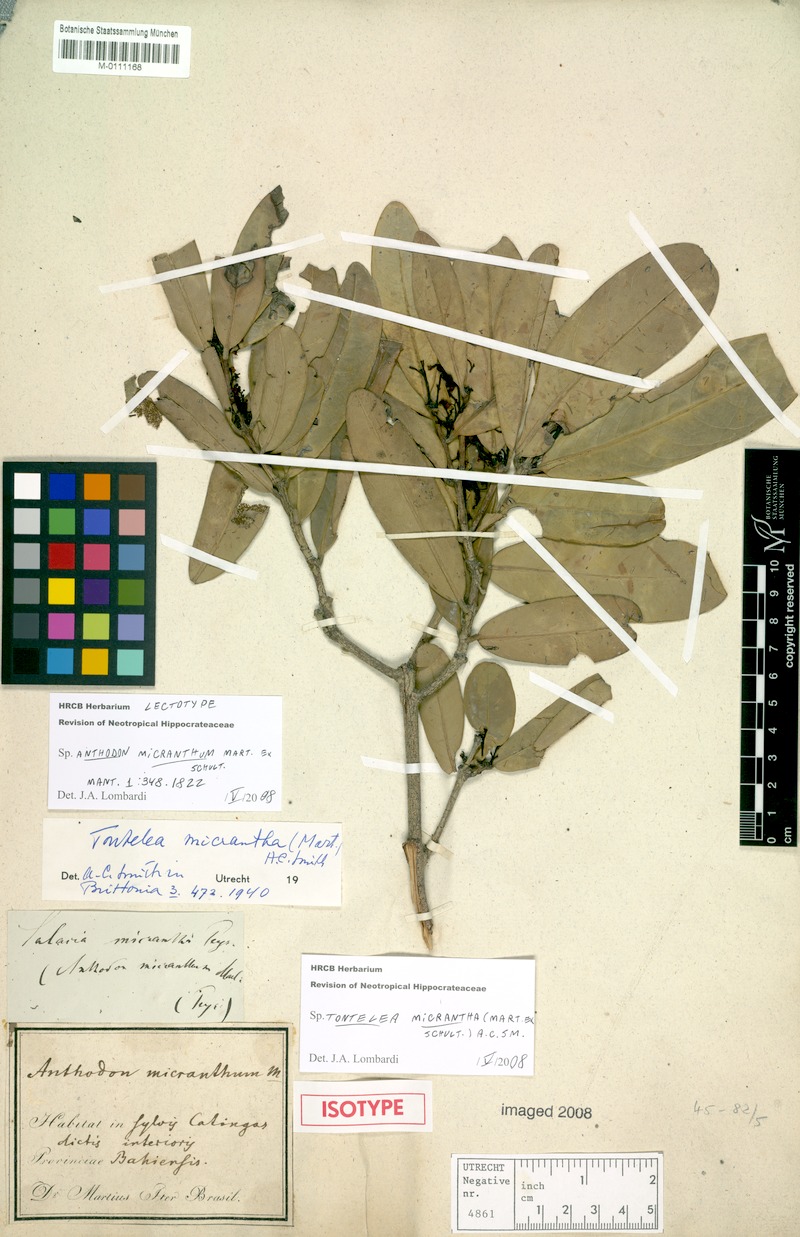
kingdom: Plantae
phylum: Tracheophyta
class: Magnoliopsida
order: Celastrales
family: Celastraceae
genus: Tontelea
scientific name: Tontelea micrantha
